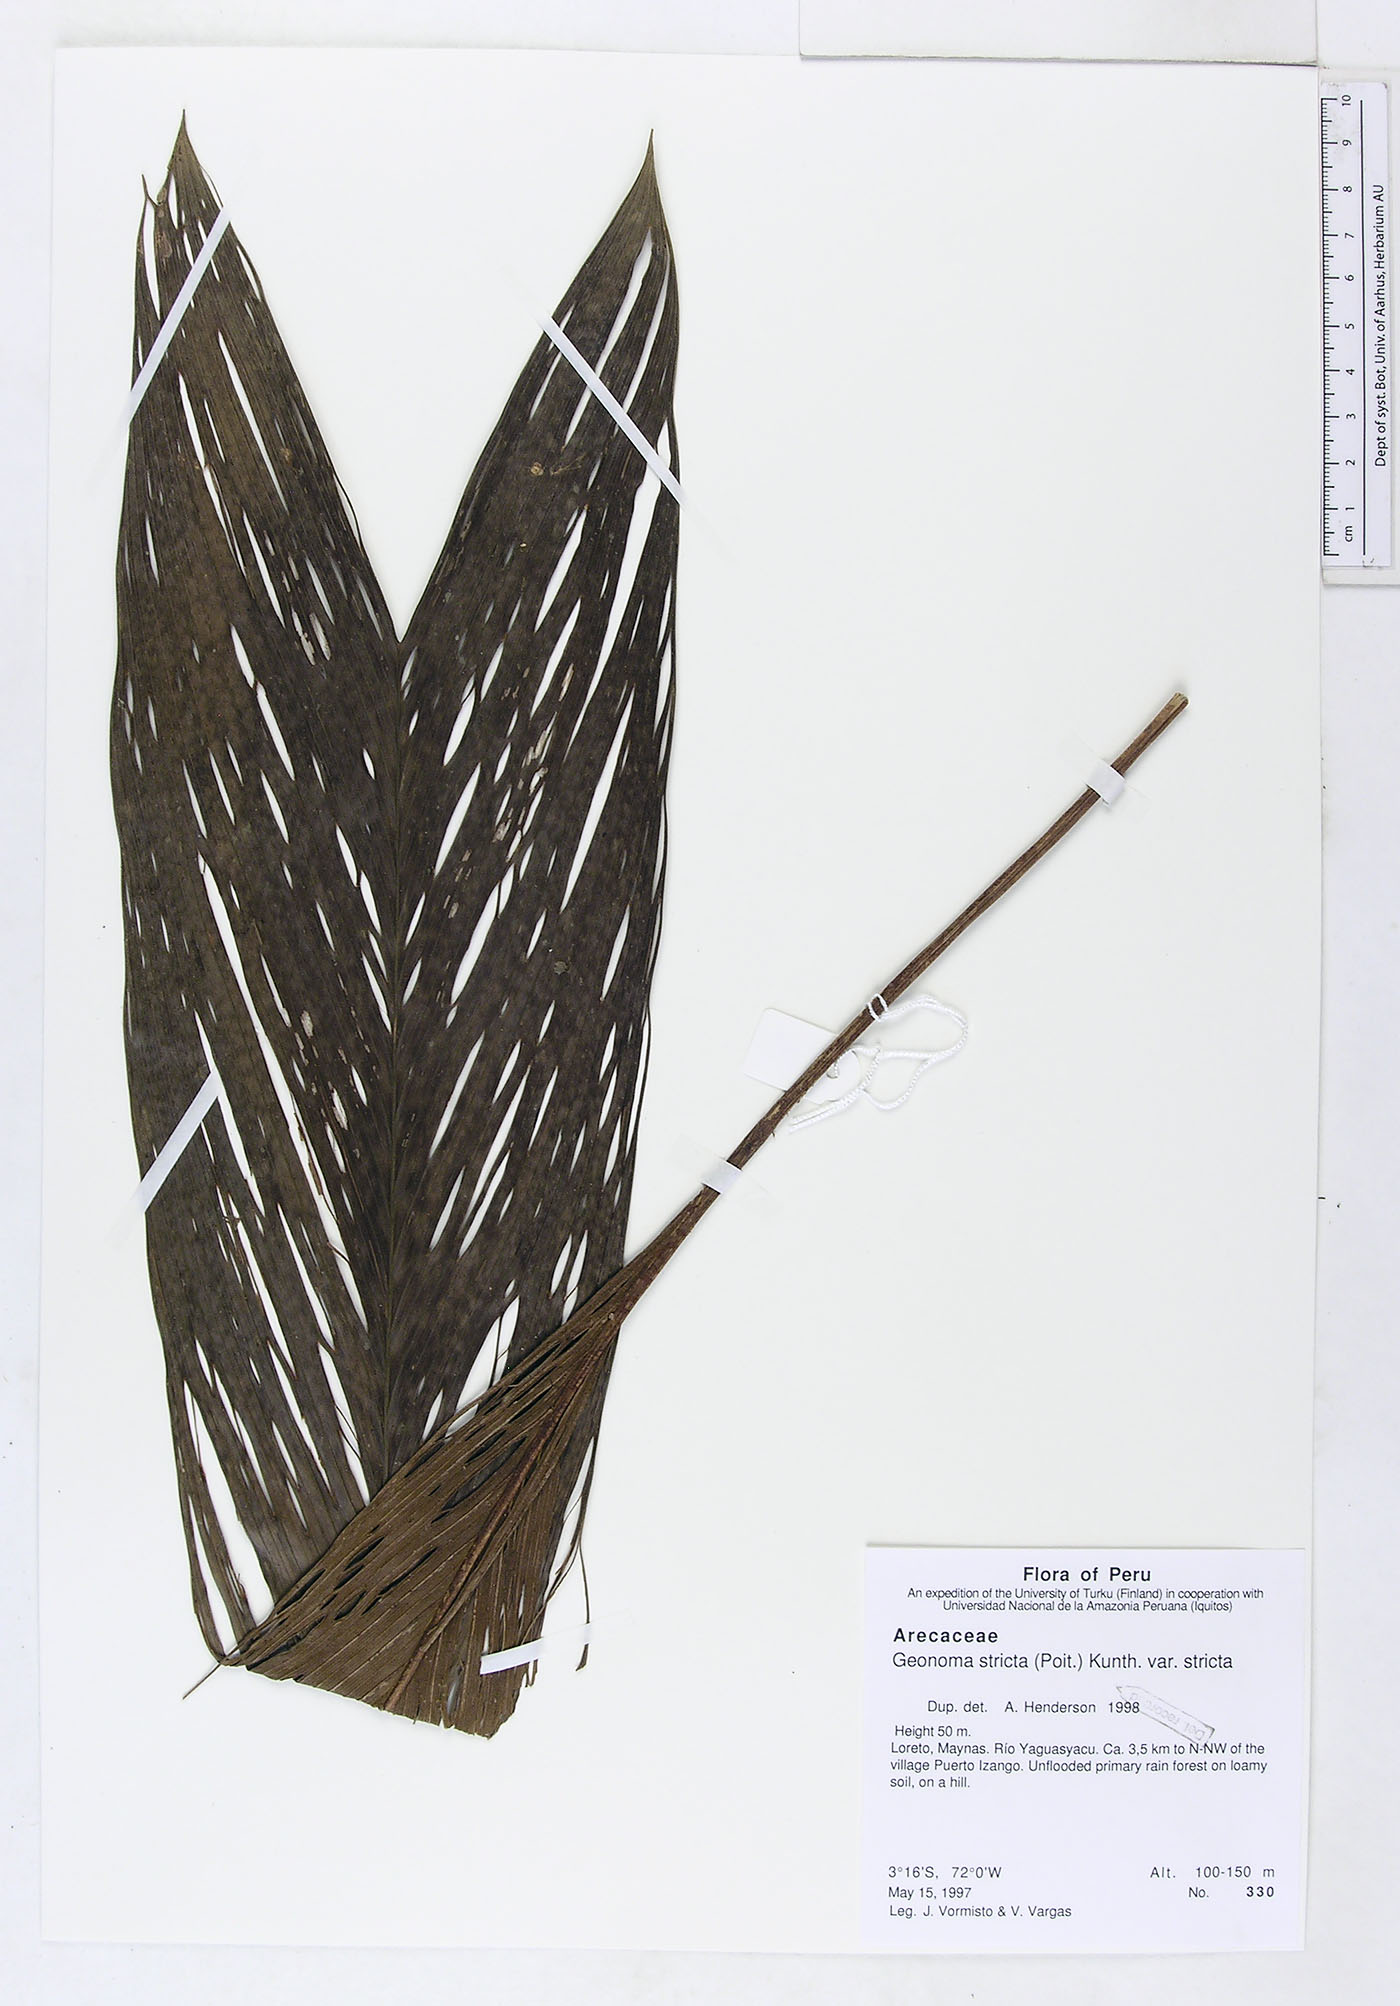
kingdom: Plantae
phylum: Tracheophyta
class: Liliopsida
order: Arecales
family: Arecaceae
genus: Geonoma
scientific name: Geonoma stricta
